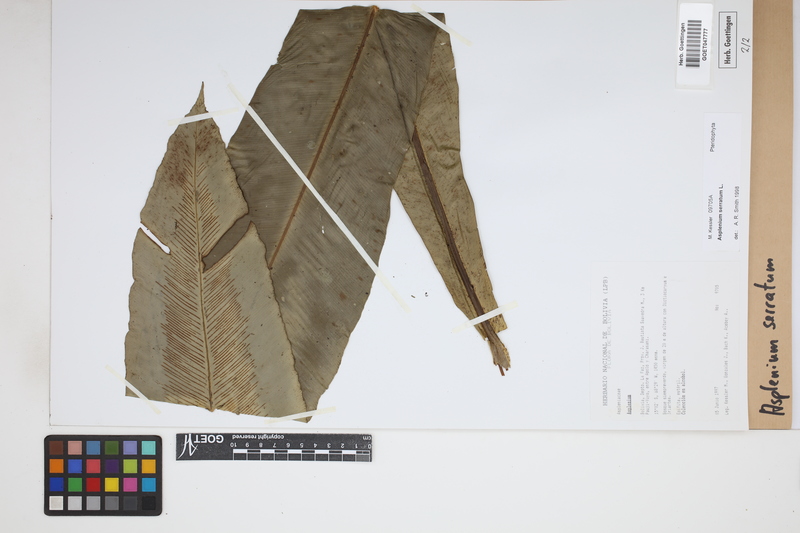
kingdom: Plantae
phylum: Tracheophyta
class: Polypodiopsida
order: Polypodiales
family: Aspleniaceae
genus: Asplenium
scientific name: Asplenium serratum
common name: Wild birdnest fern
